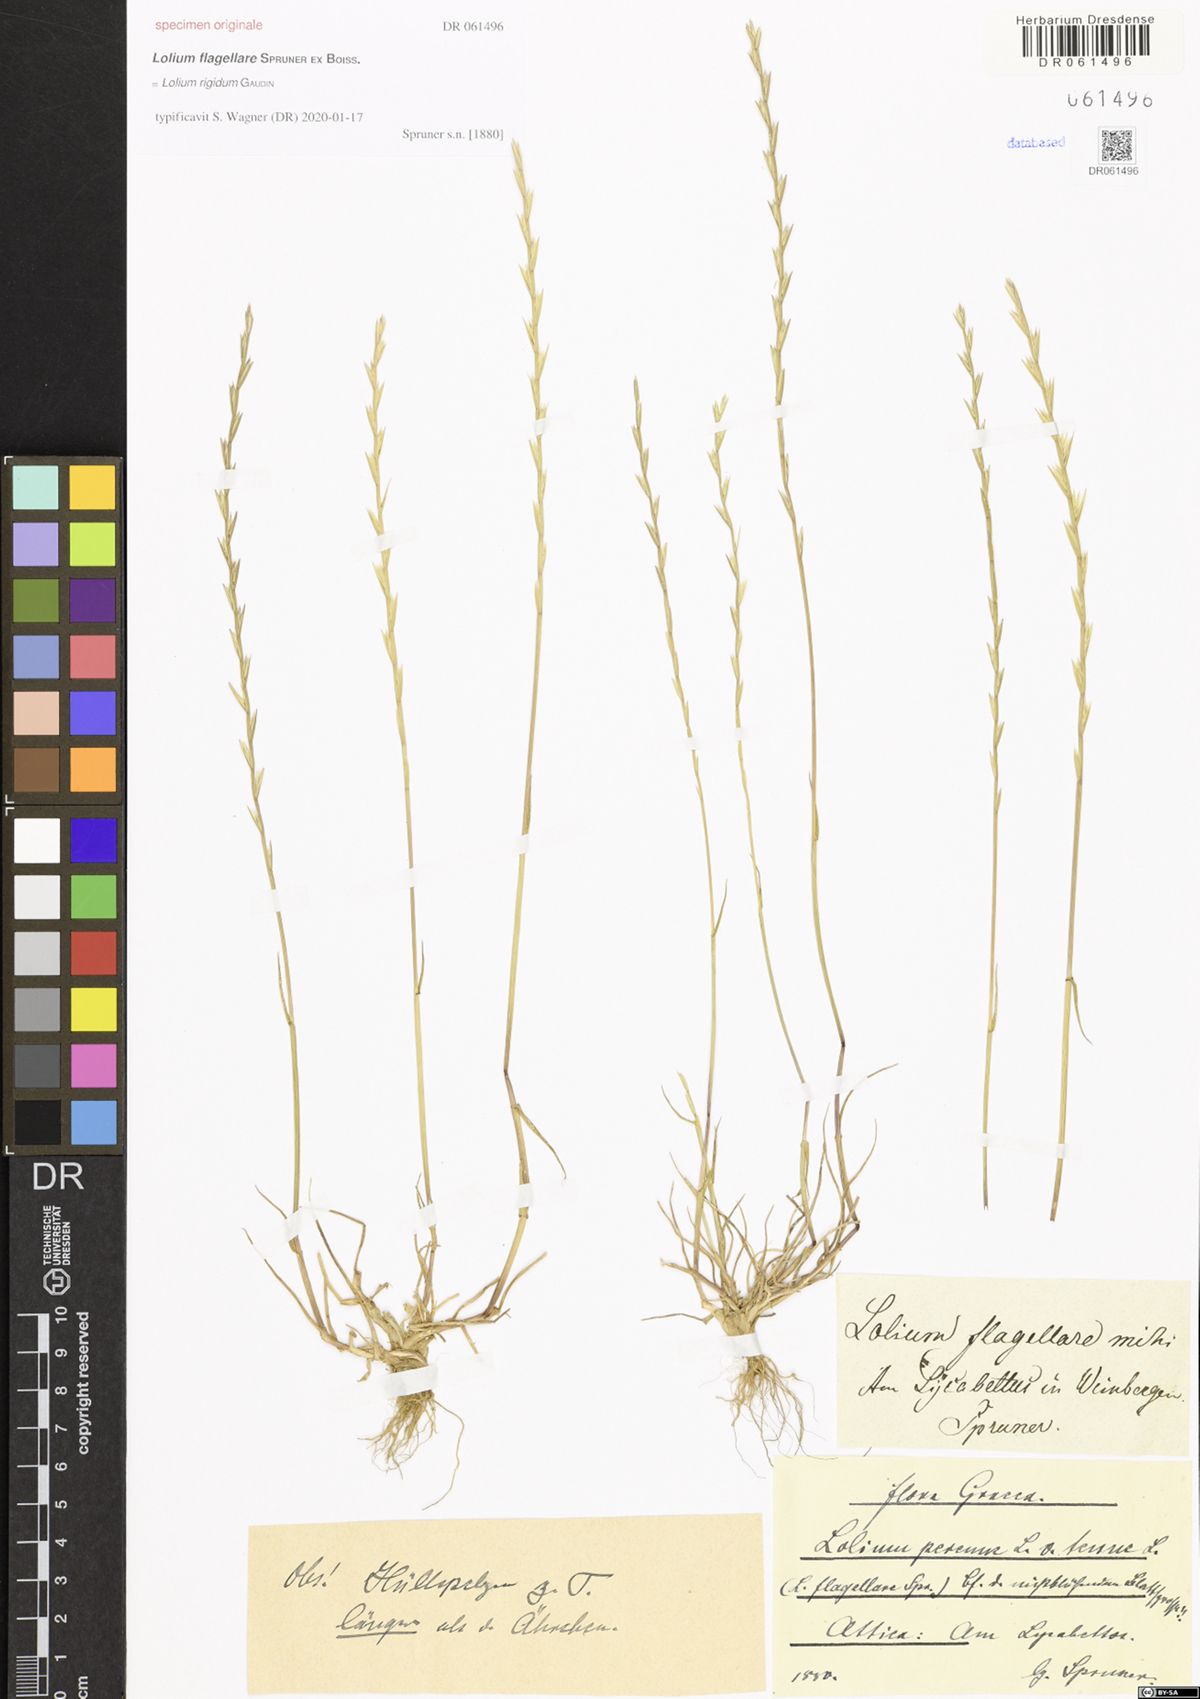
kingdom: Plantae
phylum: Tracheophyta
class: Liliopsida
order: Poales
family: Poaceae
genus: Lolium
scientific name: Lolium rigidum
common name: Wimmera ryegrass
